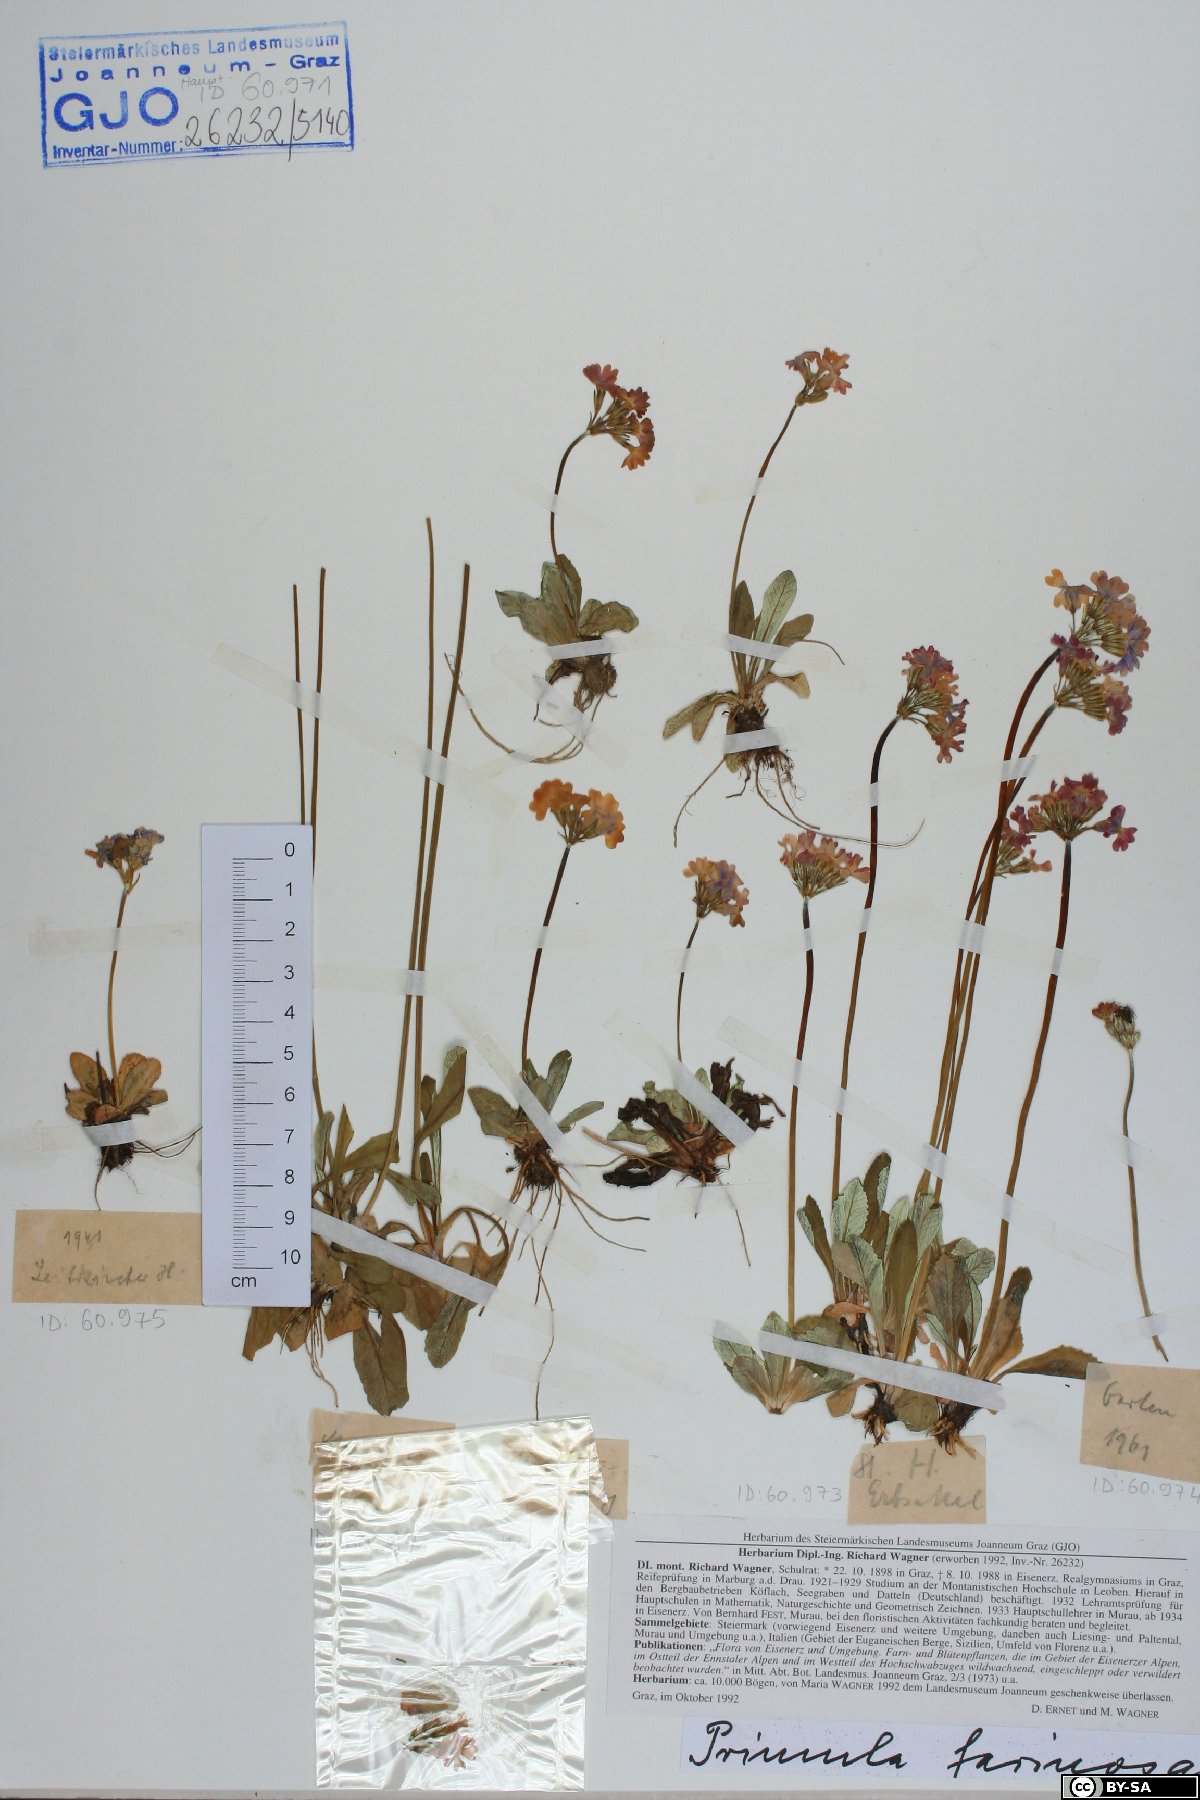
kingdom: Plantae
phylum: Tracheophyta
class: Magnoliopsida
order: Ericales
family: Primulaceae
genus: Primula
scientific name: Primula farinosa
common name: Bird's-eye primrose
